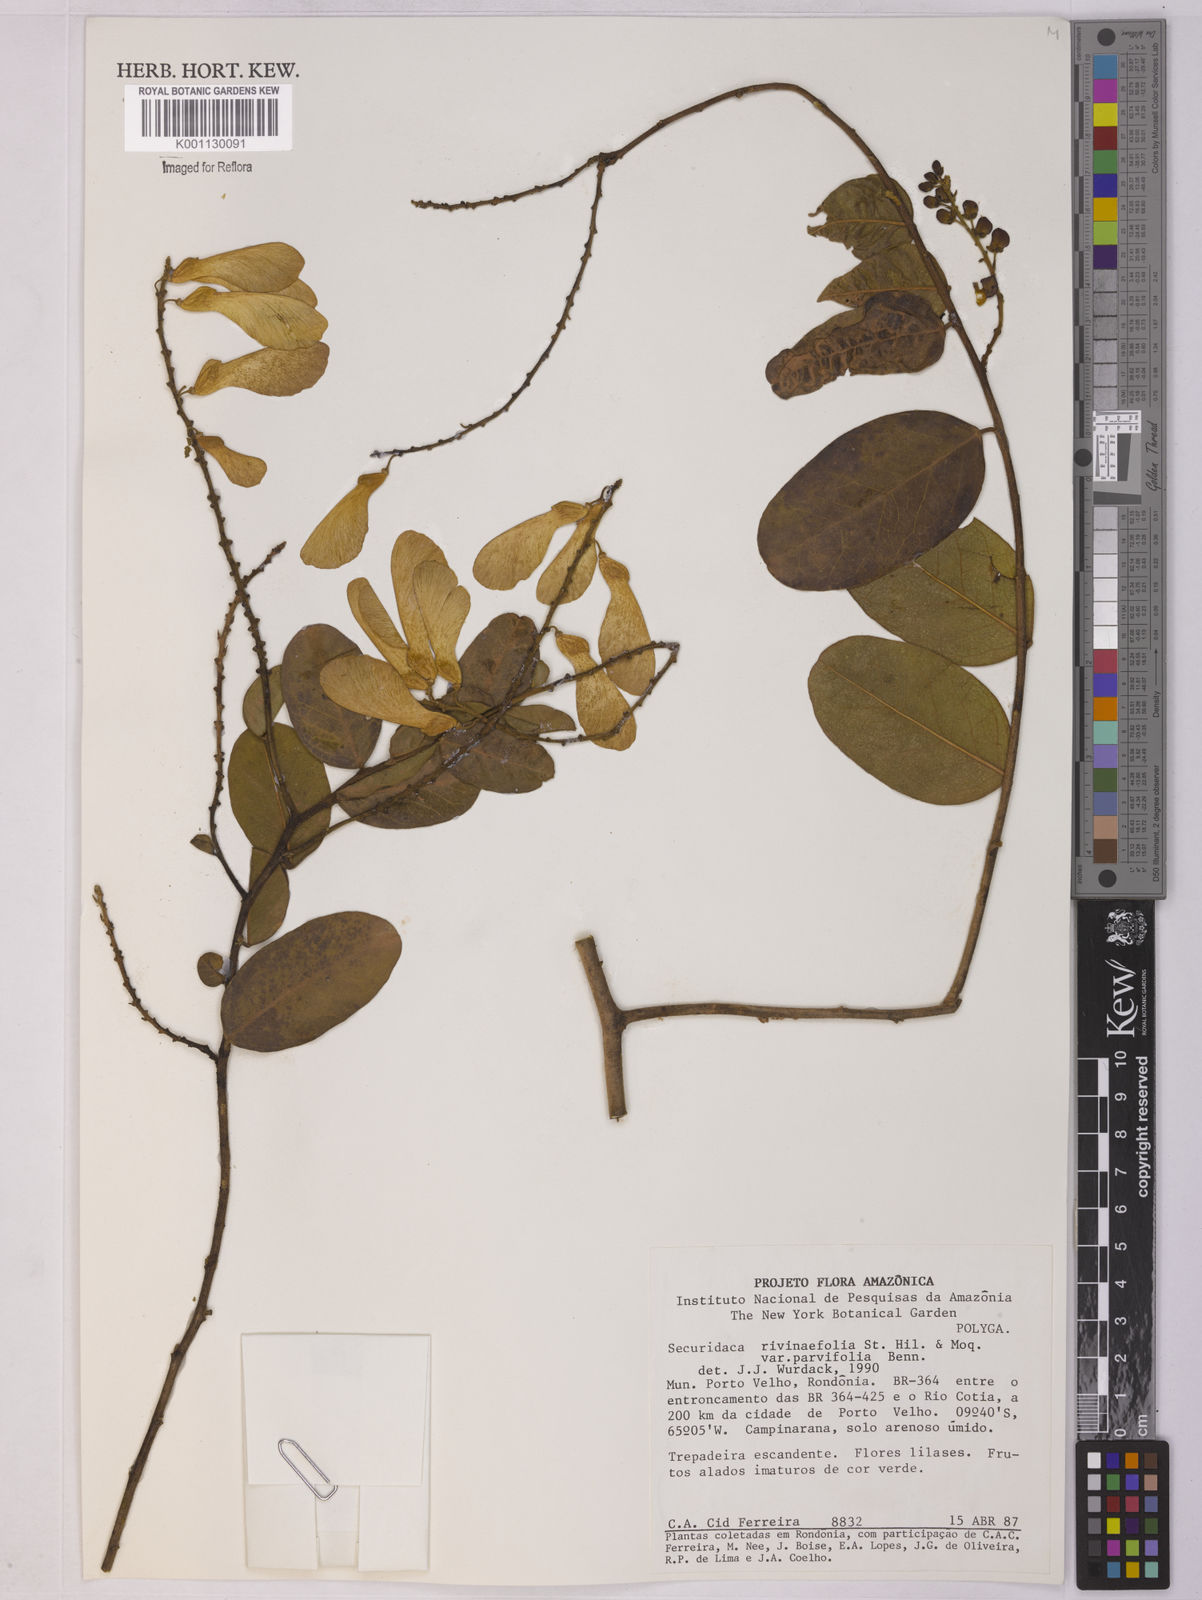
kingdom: Plantae
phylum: Tracheophyta
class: Magnoliopsida
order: Fabales
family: Polygalaceae
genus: Securidaca
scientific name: Securidaca rivinifolia
